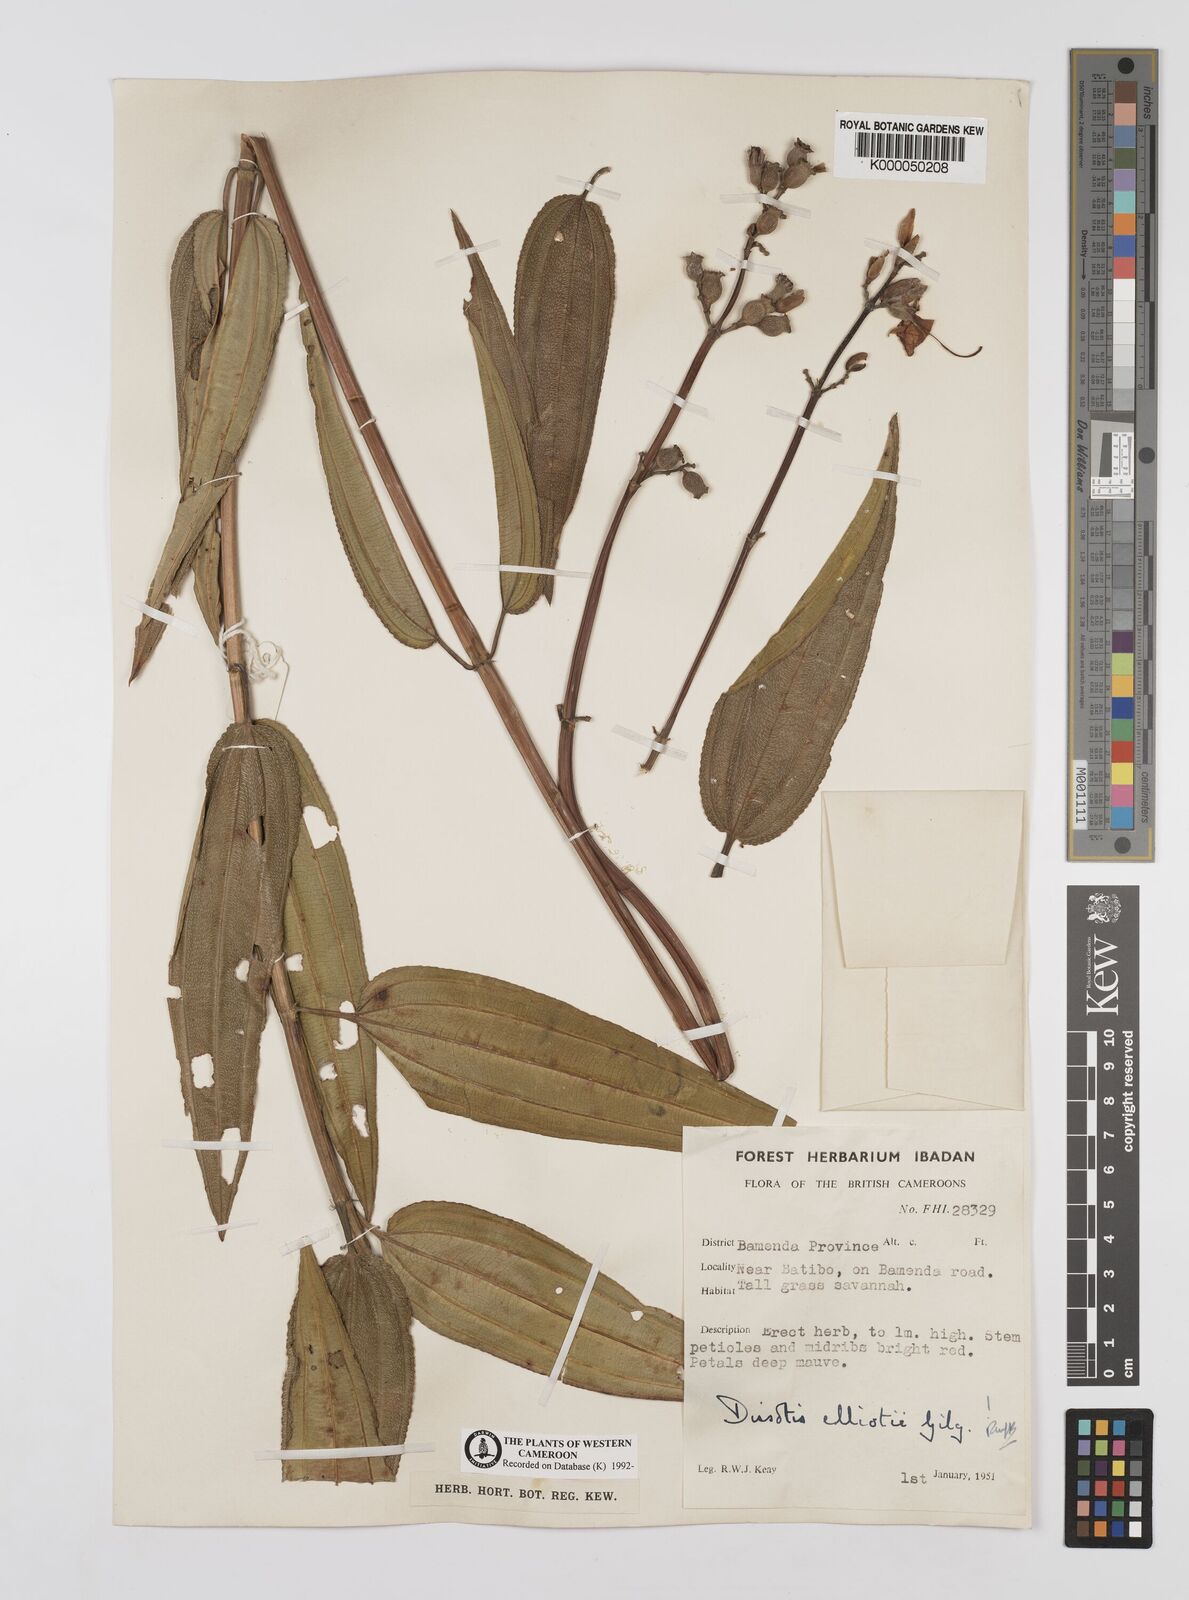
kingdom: Plantae
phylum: Tracheophyta
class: Magnoliopsida
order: Myrtales
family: Melastomataceae
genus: Dissotis
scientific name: Dissotis
